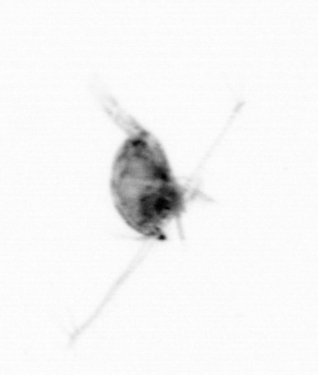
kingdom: Animalia
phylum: Arthropoda
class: Copepoda
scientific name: Copepoda
